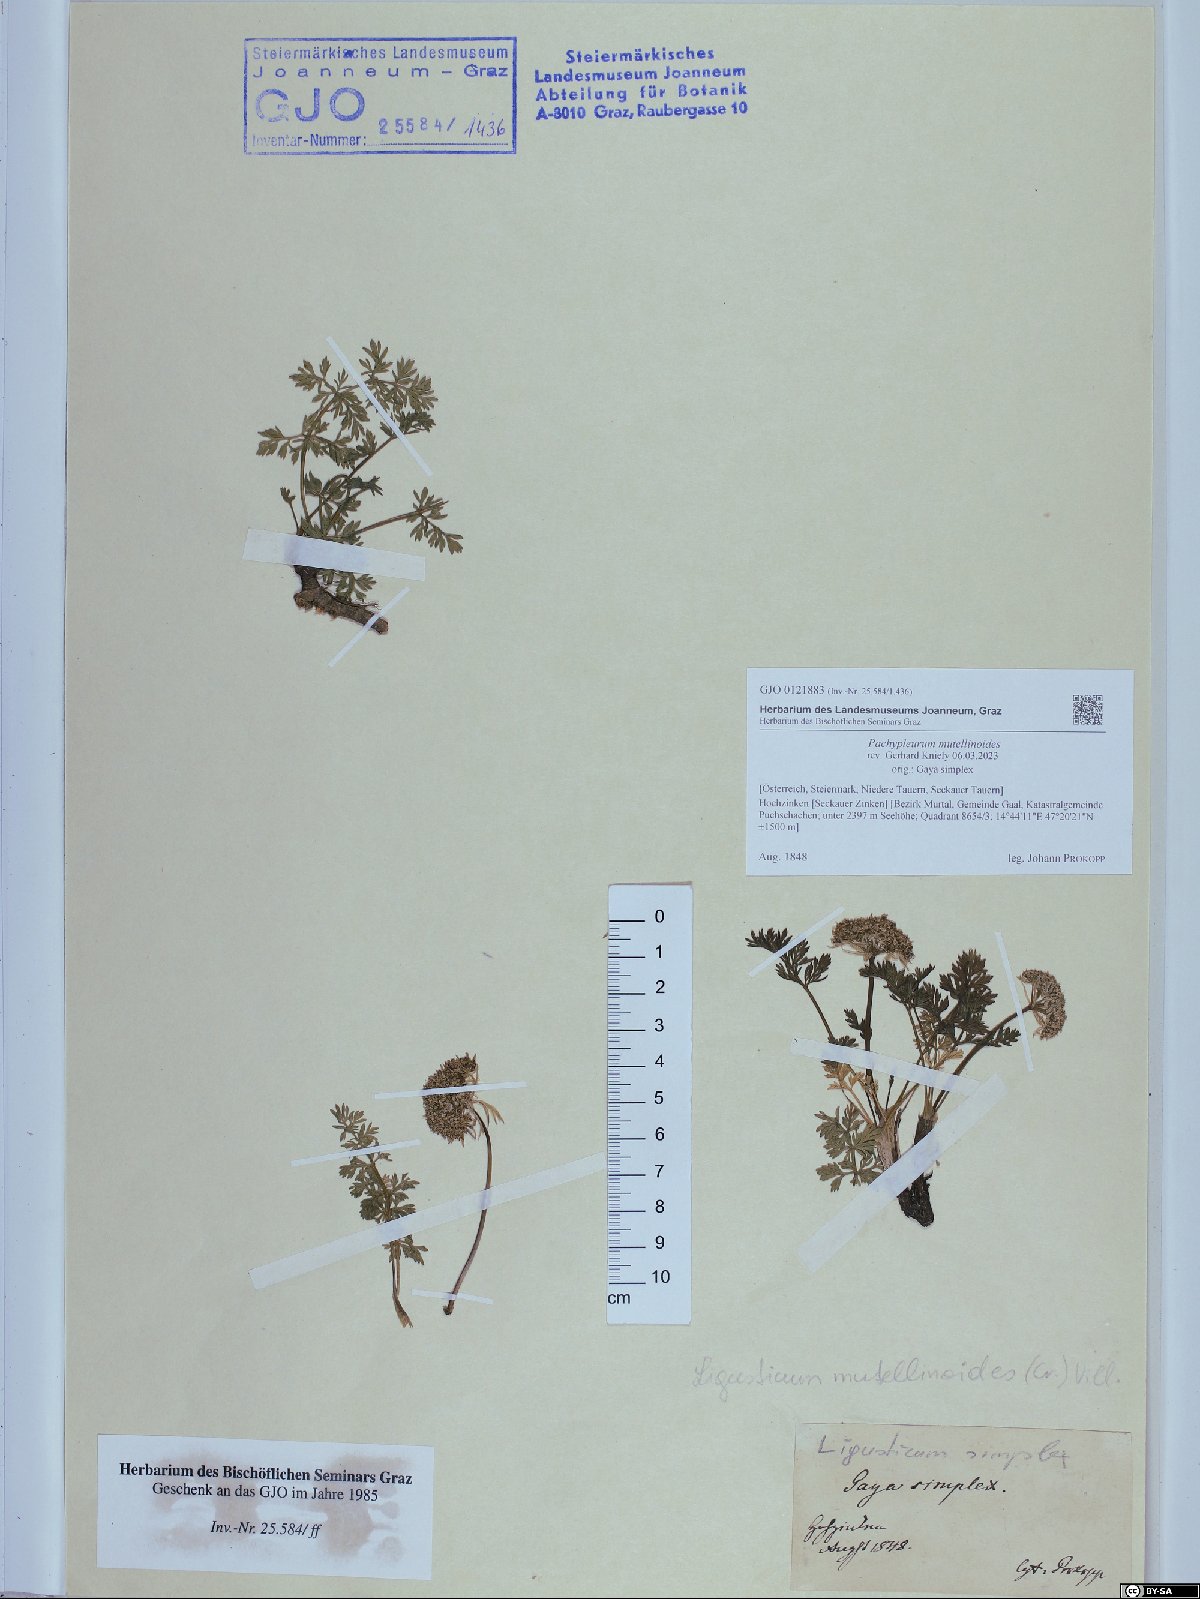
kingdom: Plantae
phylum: Tracheophyta
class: Magnoliopsida
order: Apiales
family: Apiaceae
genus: Pachypleurum
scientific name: Pachypleurum mutellinoides
